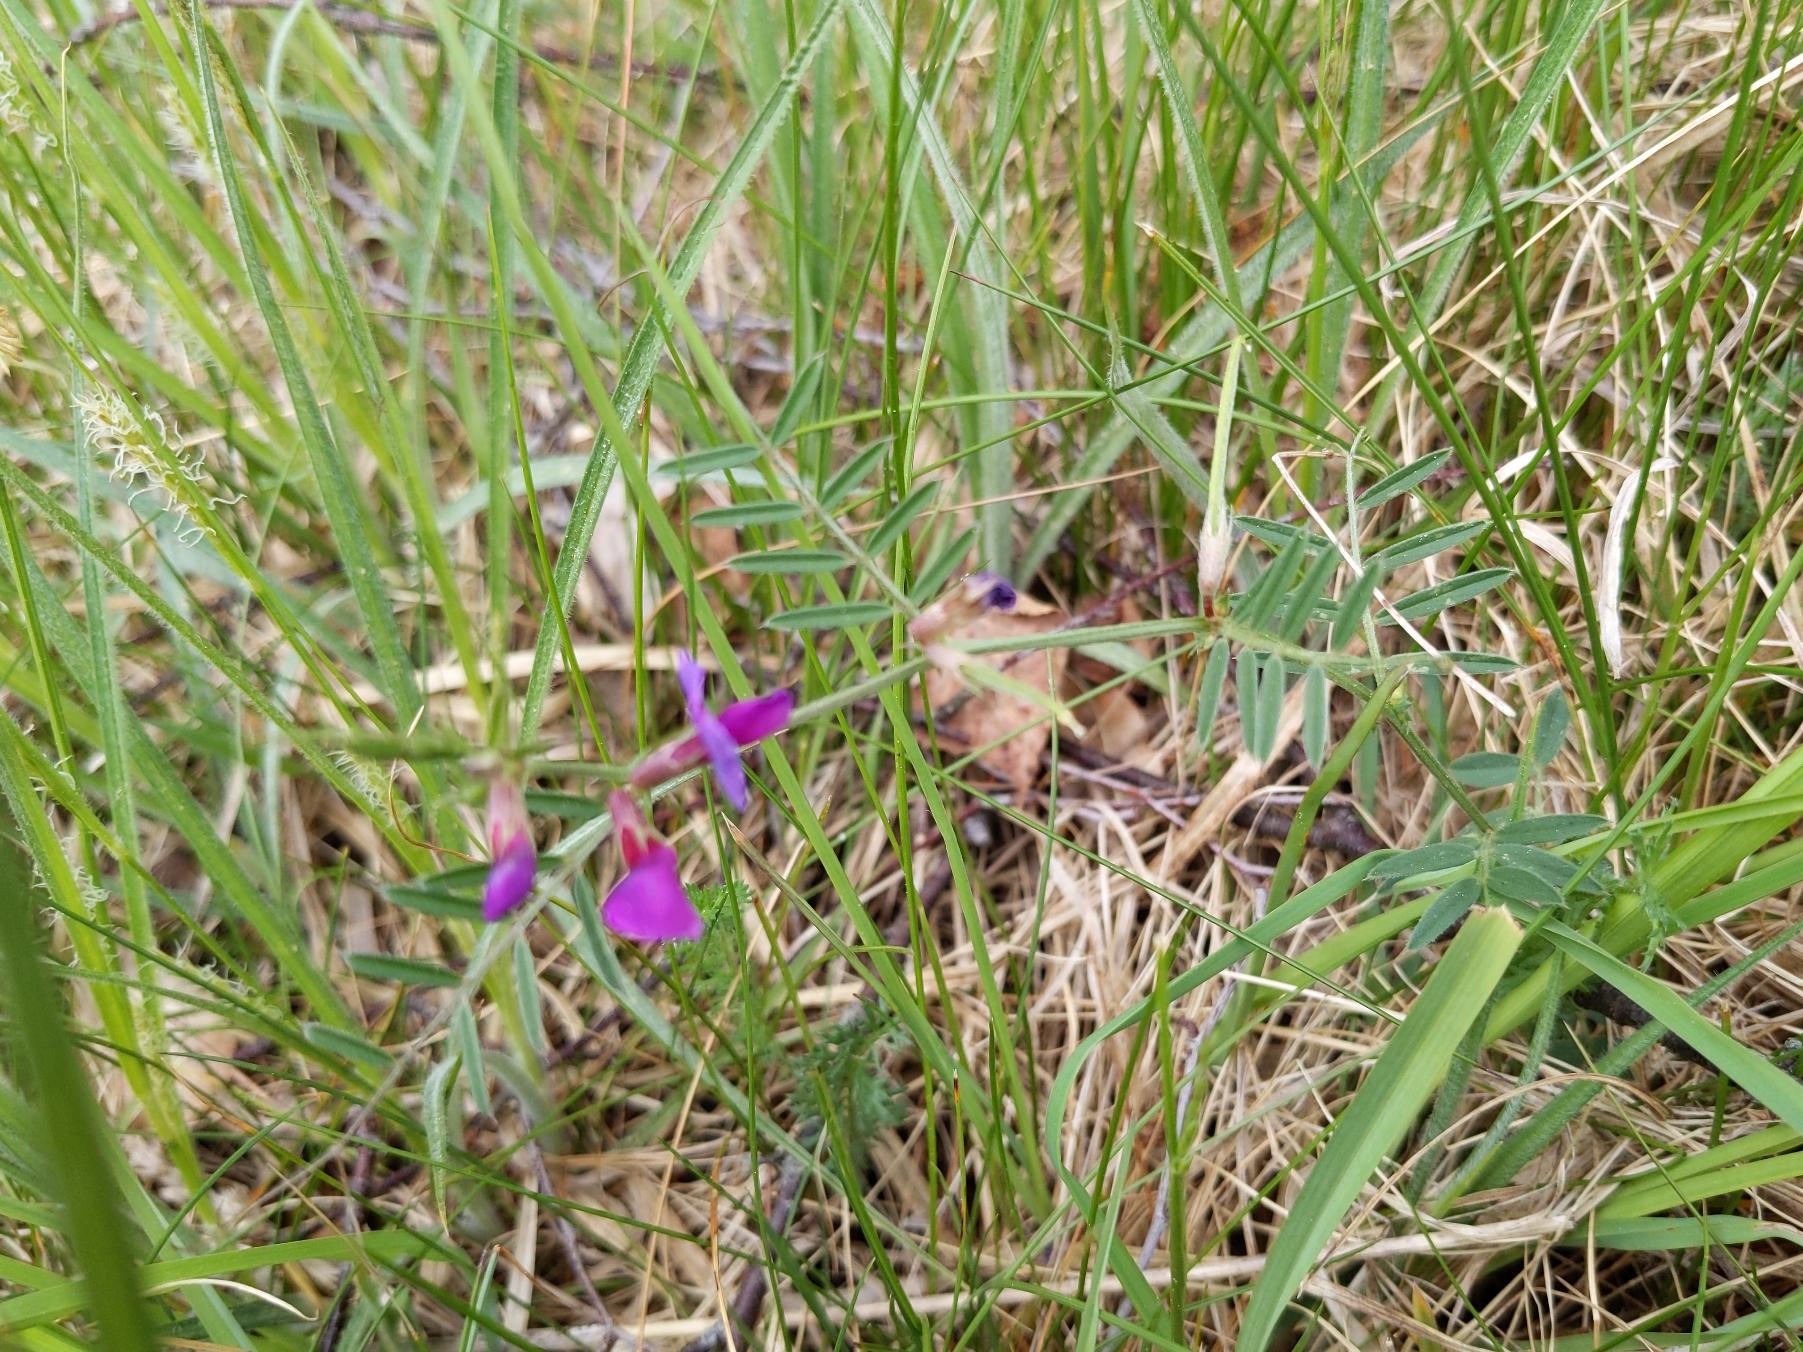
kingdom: Plantae
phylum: Tracheophyta
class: Magnoliopsida
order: Fabales
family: Fabaceae
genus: Vicia
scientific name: Vicia sativa
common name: Smalbladet vikke
